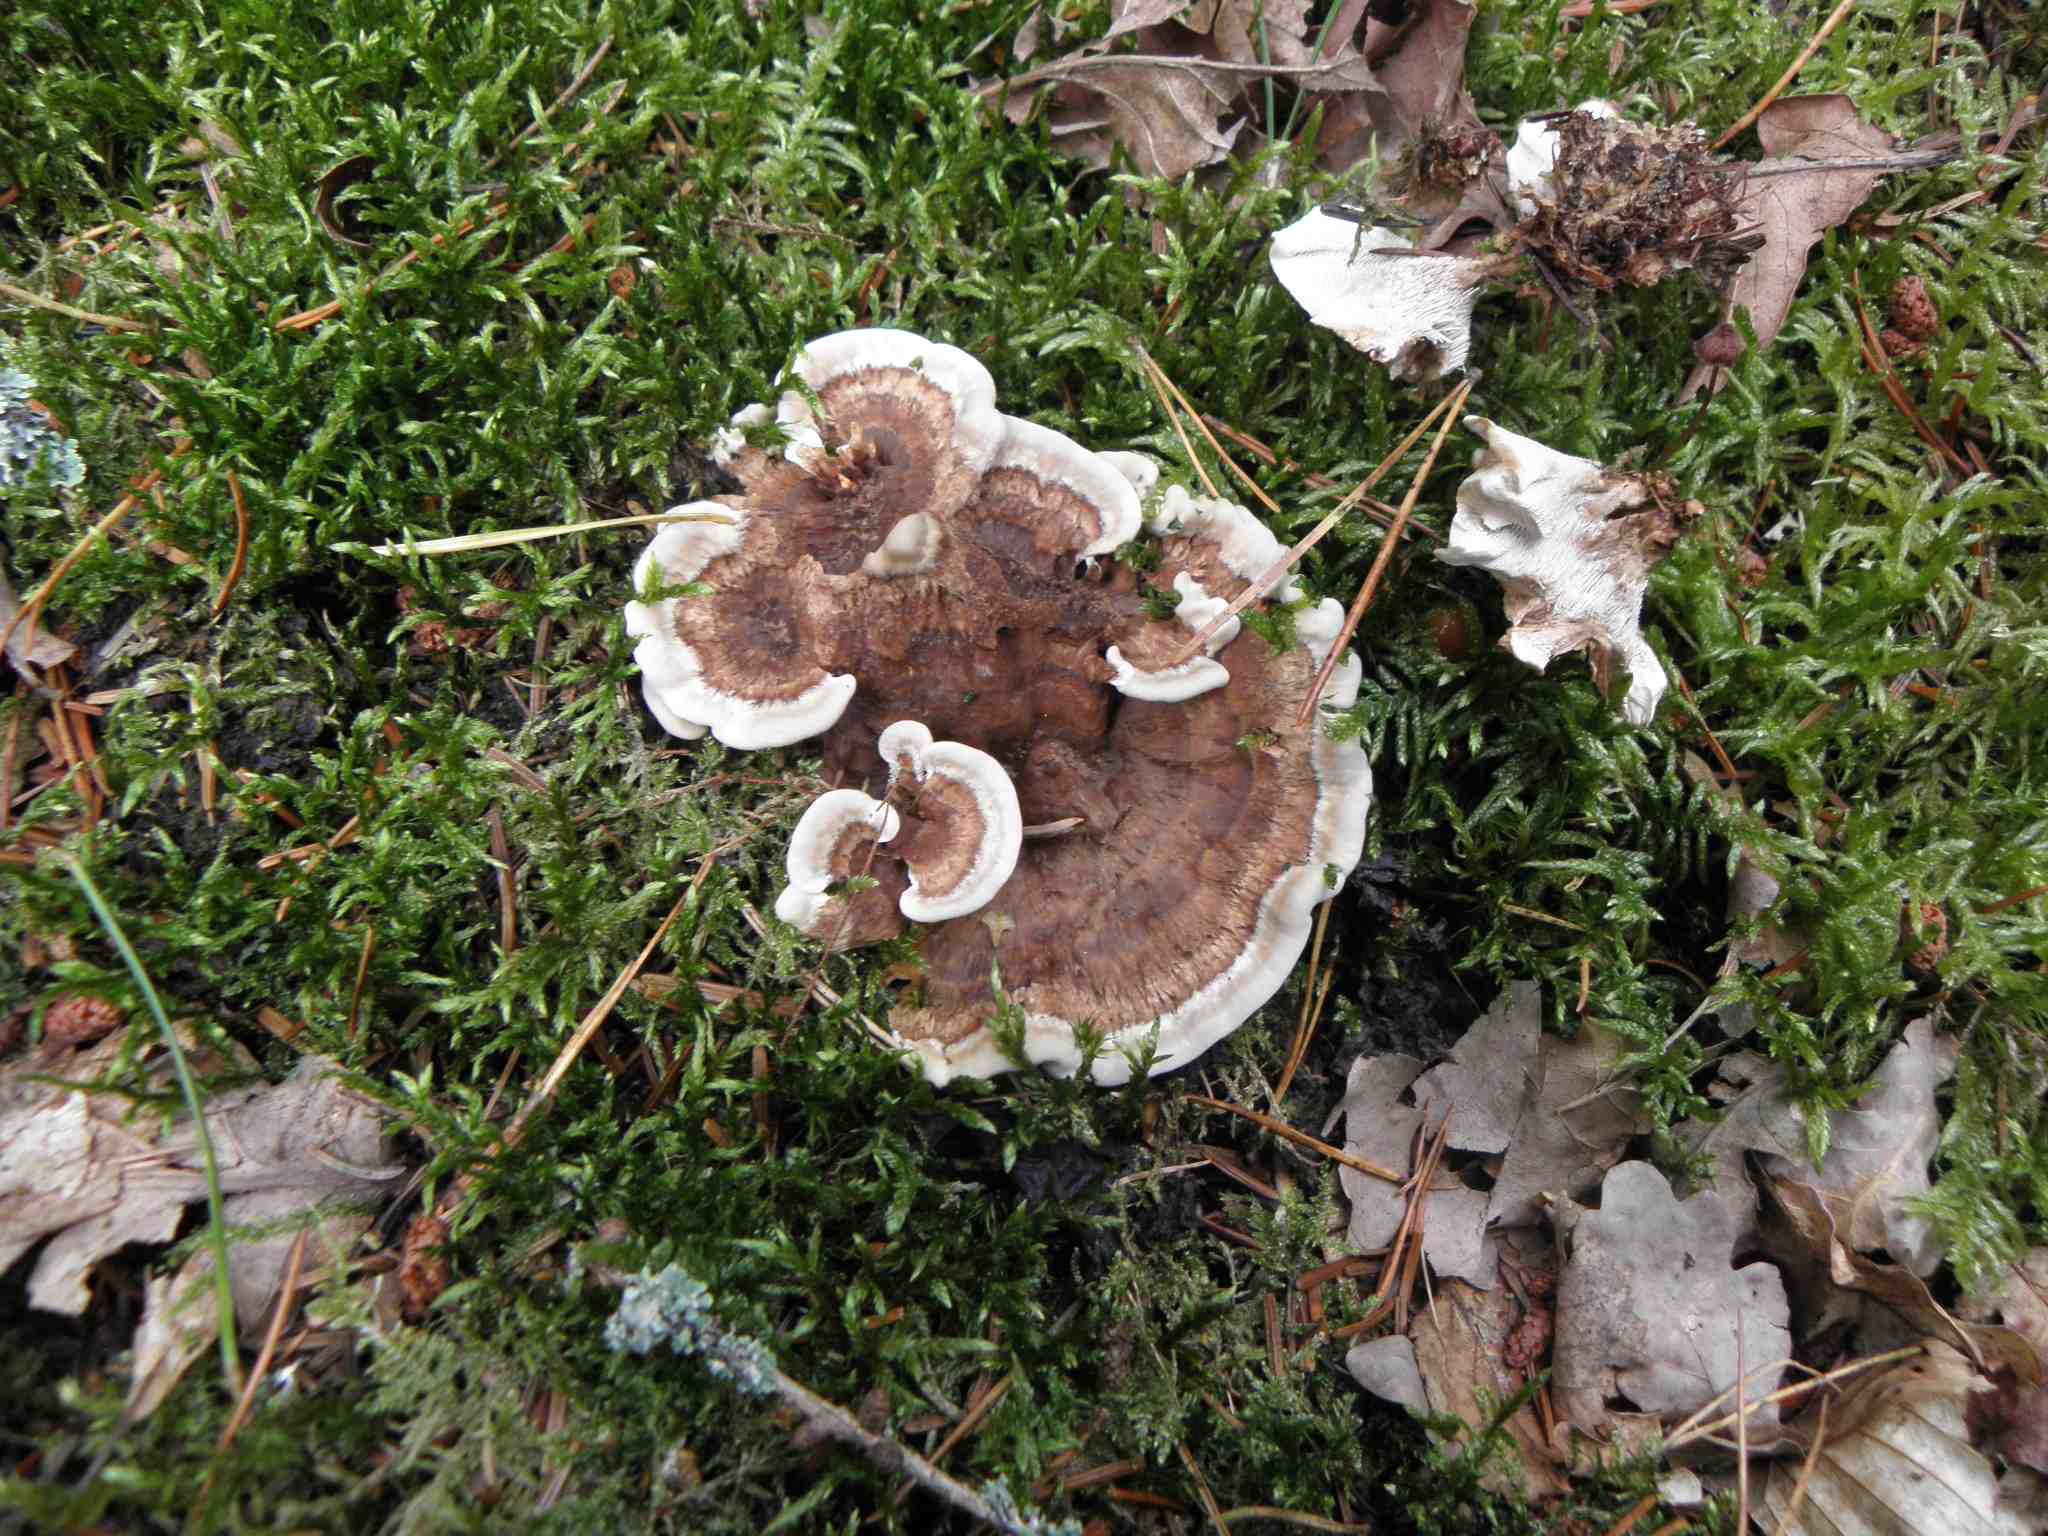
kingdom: Fungi
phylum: Basidiomycota
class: Agaricomycetes
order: Thelephorales
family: Thelephoraceae
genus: Phellodon
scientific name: Phellodon tomentosus
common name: tragtformet duftpigsvamp
